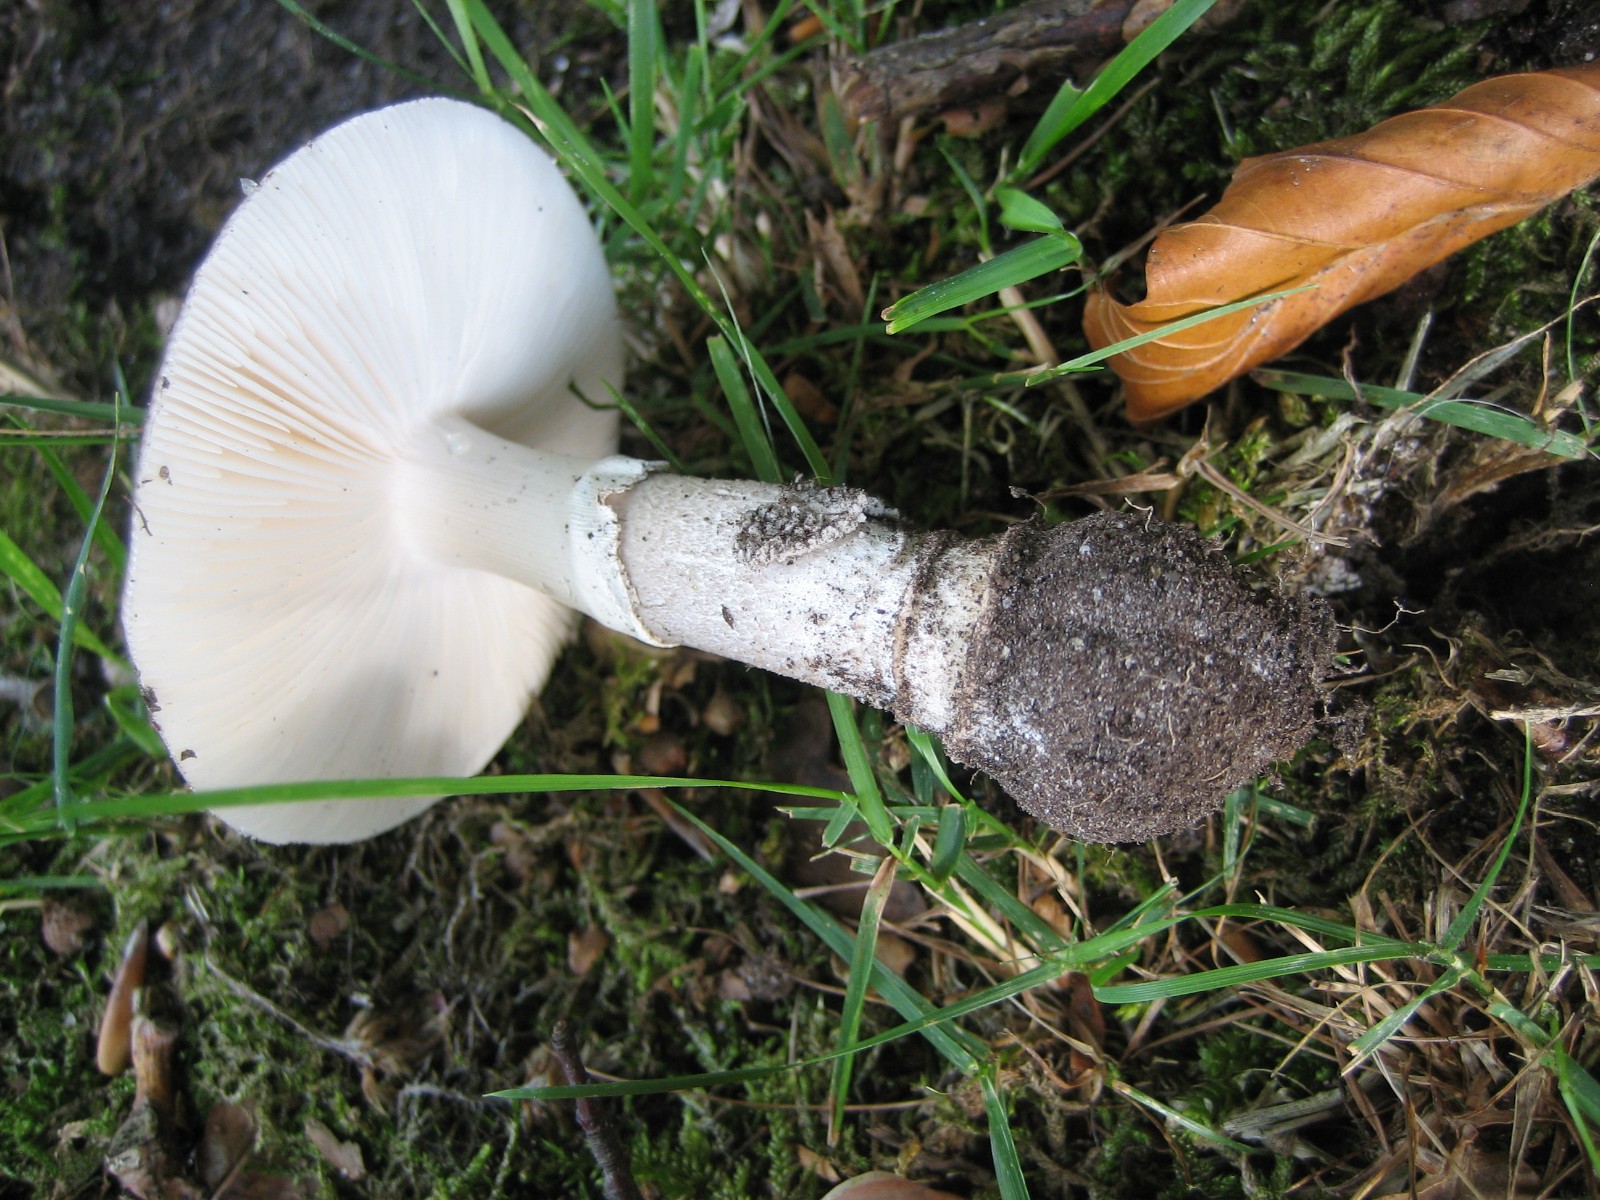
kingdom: Fungi
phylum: Basidiomycota
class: Agaricomycetes
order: Agaricales
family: Amanitaceae
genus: Amanita
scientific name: Amanita
